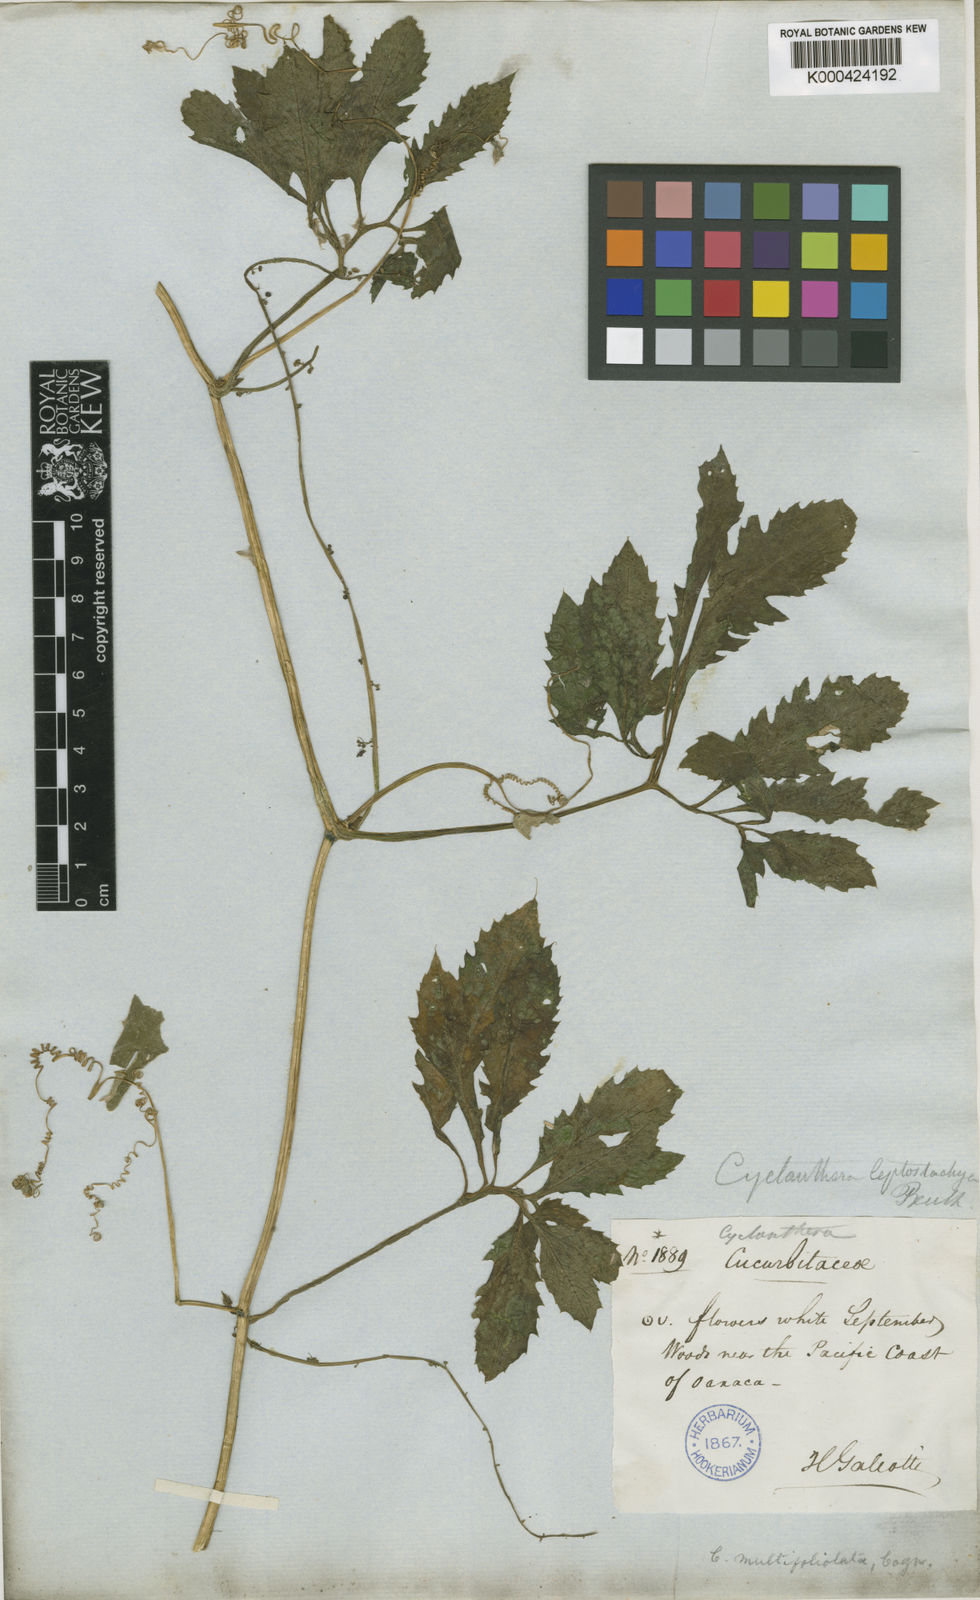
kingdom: Plantae
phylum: Tracheophyta
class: Magnoliopsida
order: Cucurbitales
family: Cucurbitaceae
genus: Cyclanthera
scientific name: Cyclanthera multifoliola
